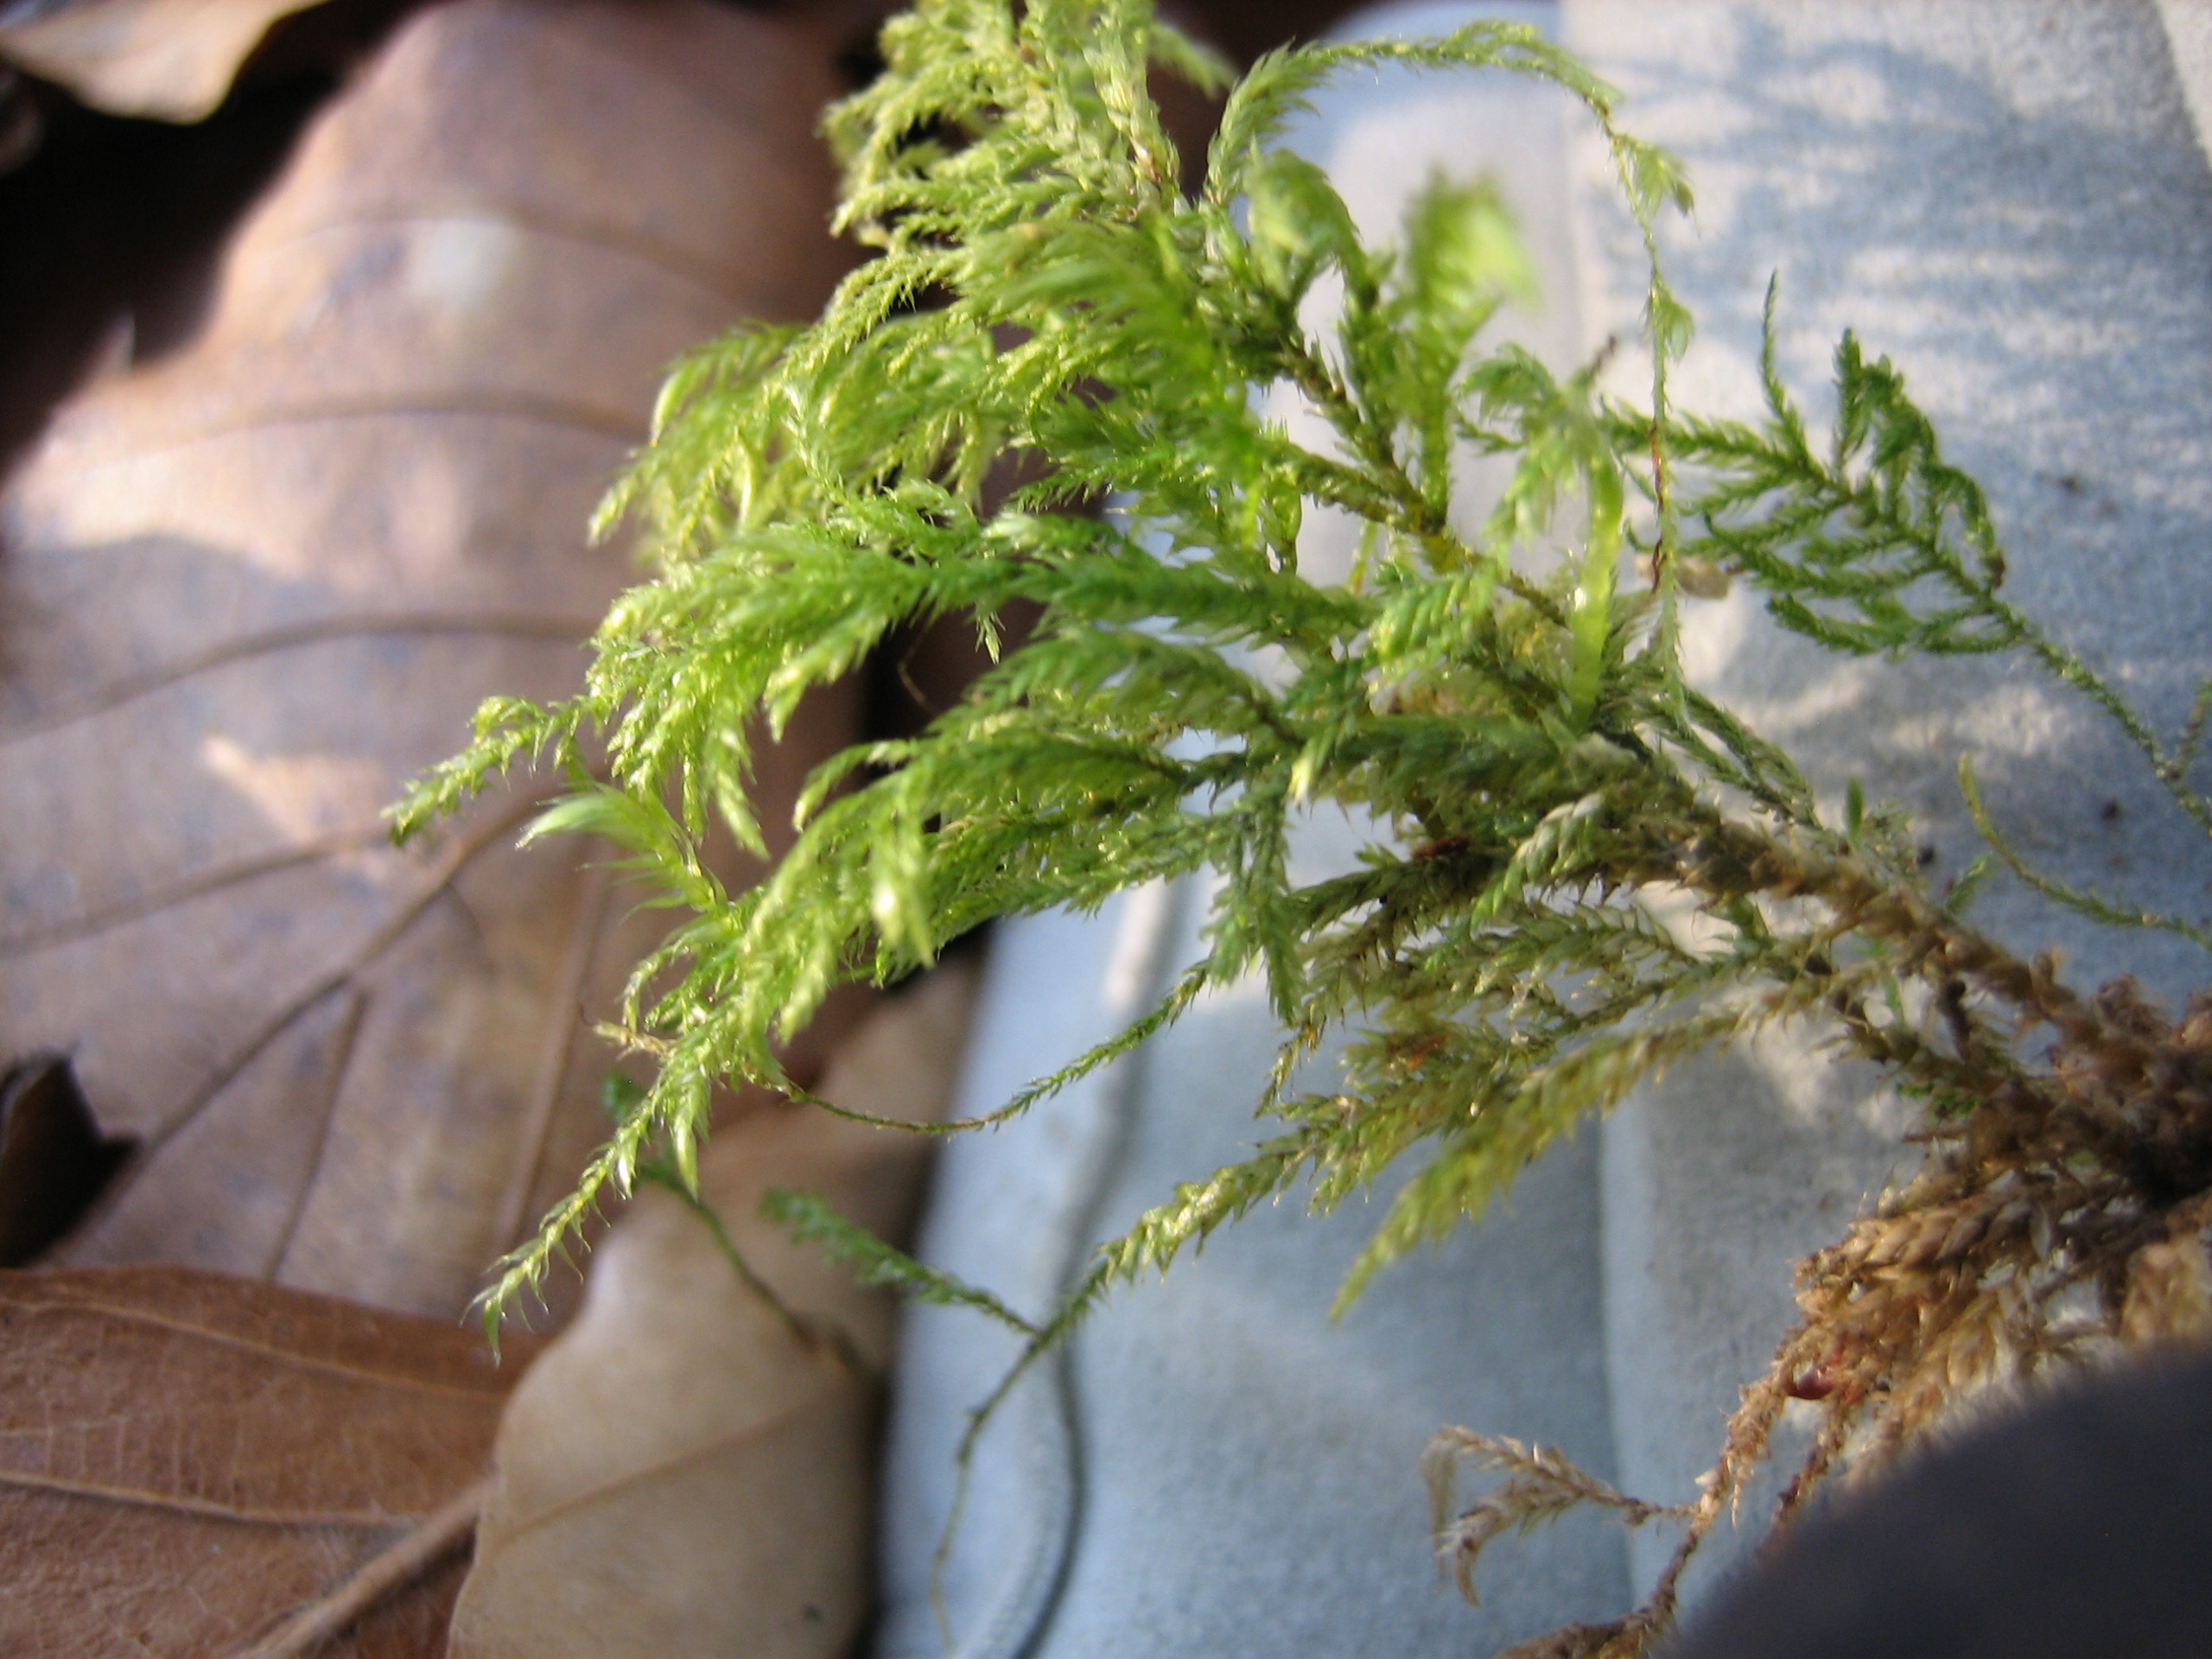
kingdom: Plantae
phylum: Bryophyta
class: Bryopsida
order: Hypnales
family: Lembophyllaceae
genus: Pseudisothecium
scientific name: Pseudisothecium myosuroides
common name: Slank stammemos
